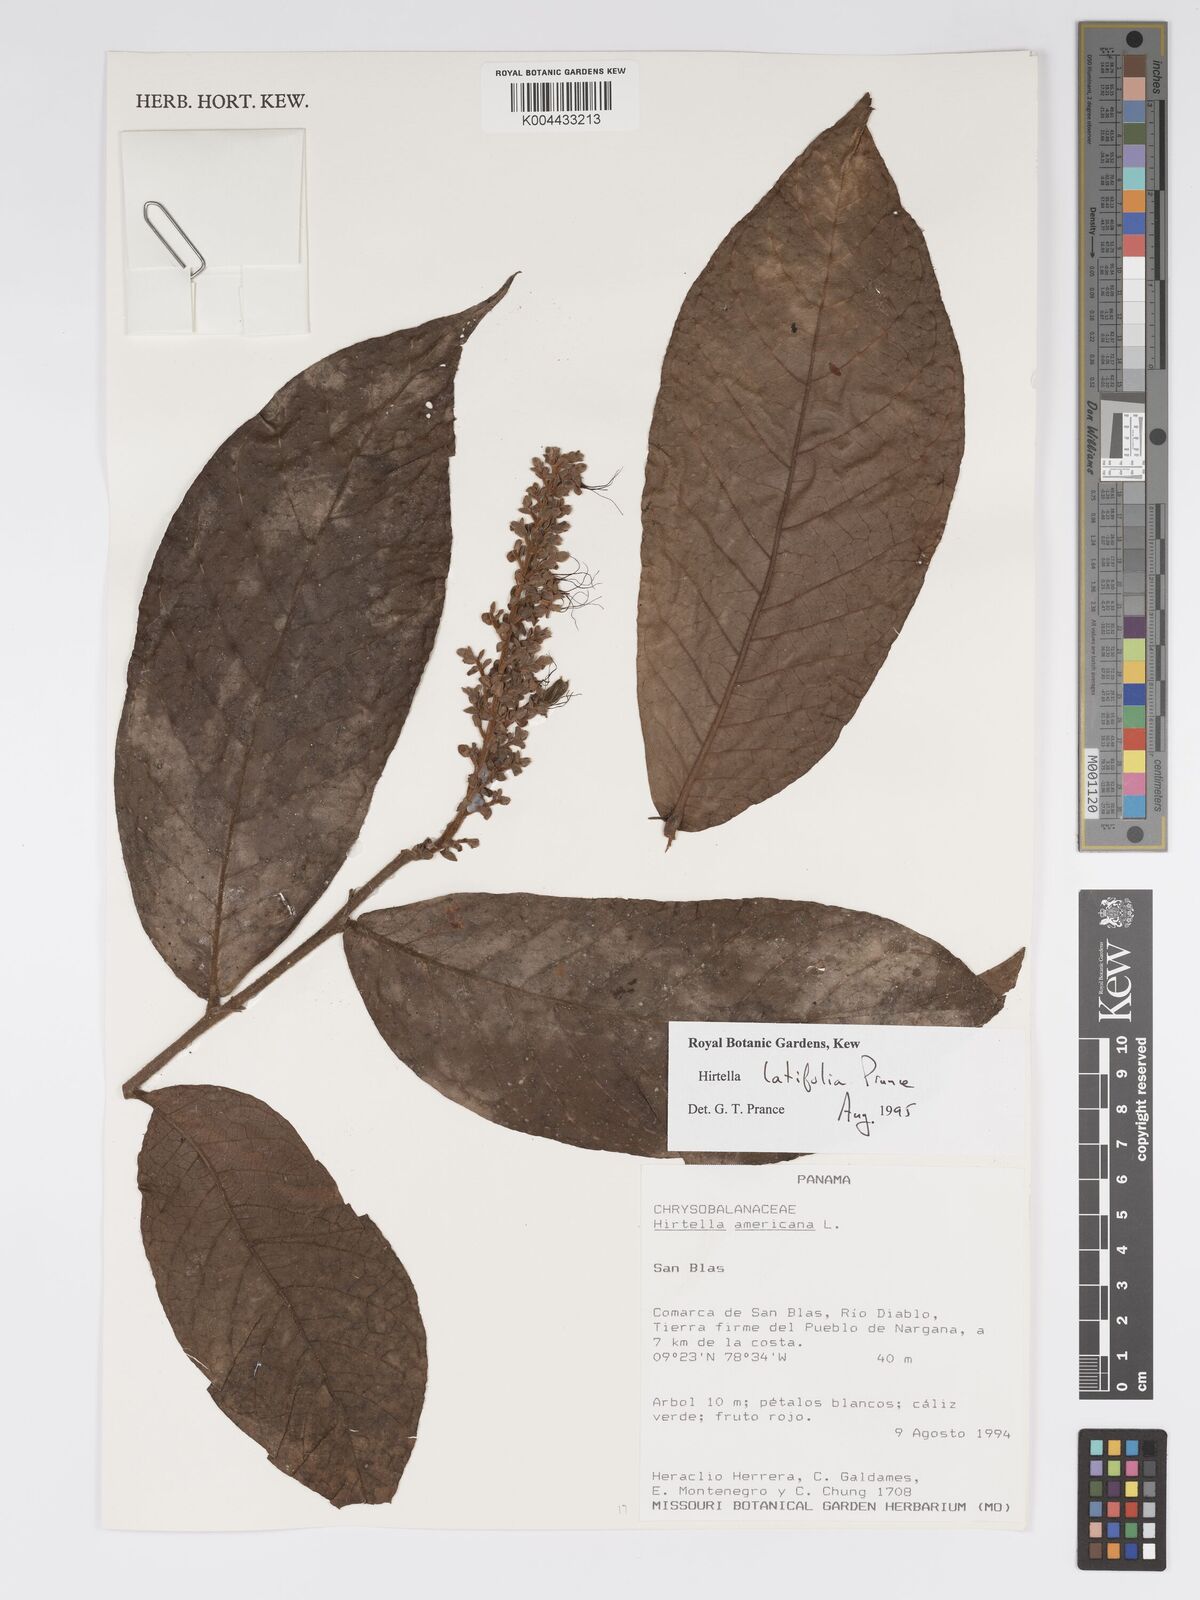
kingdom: Plantae
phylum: Tracheophyta
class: Magnoliopsida
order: Malpighiales
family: Chrysobalanaceae
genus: Hirtella
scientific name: Hirtella latifolia
